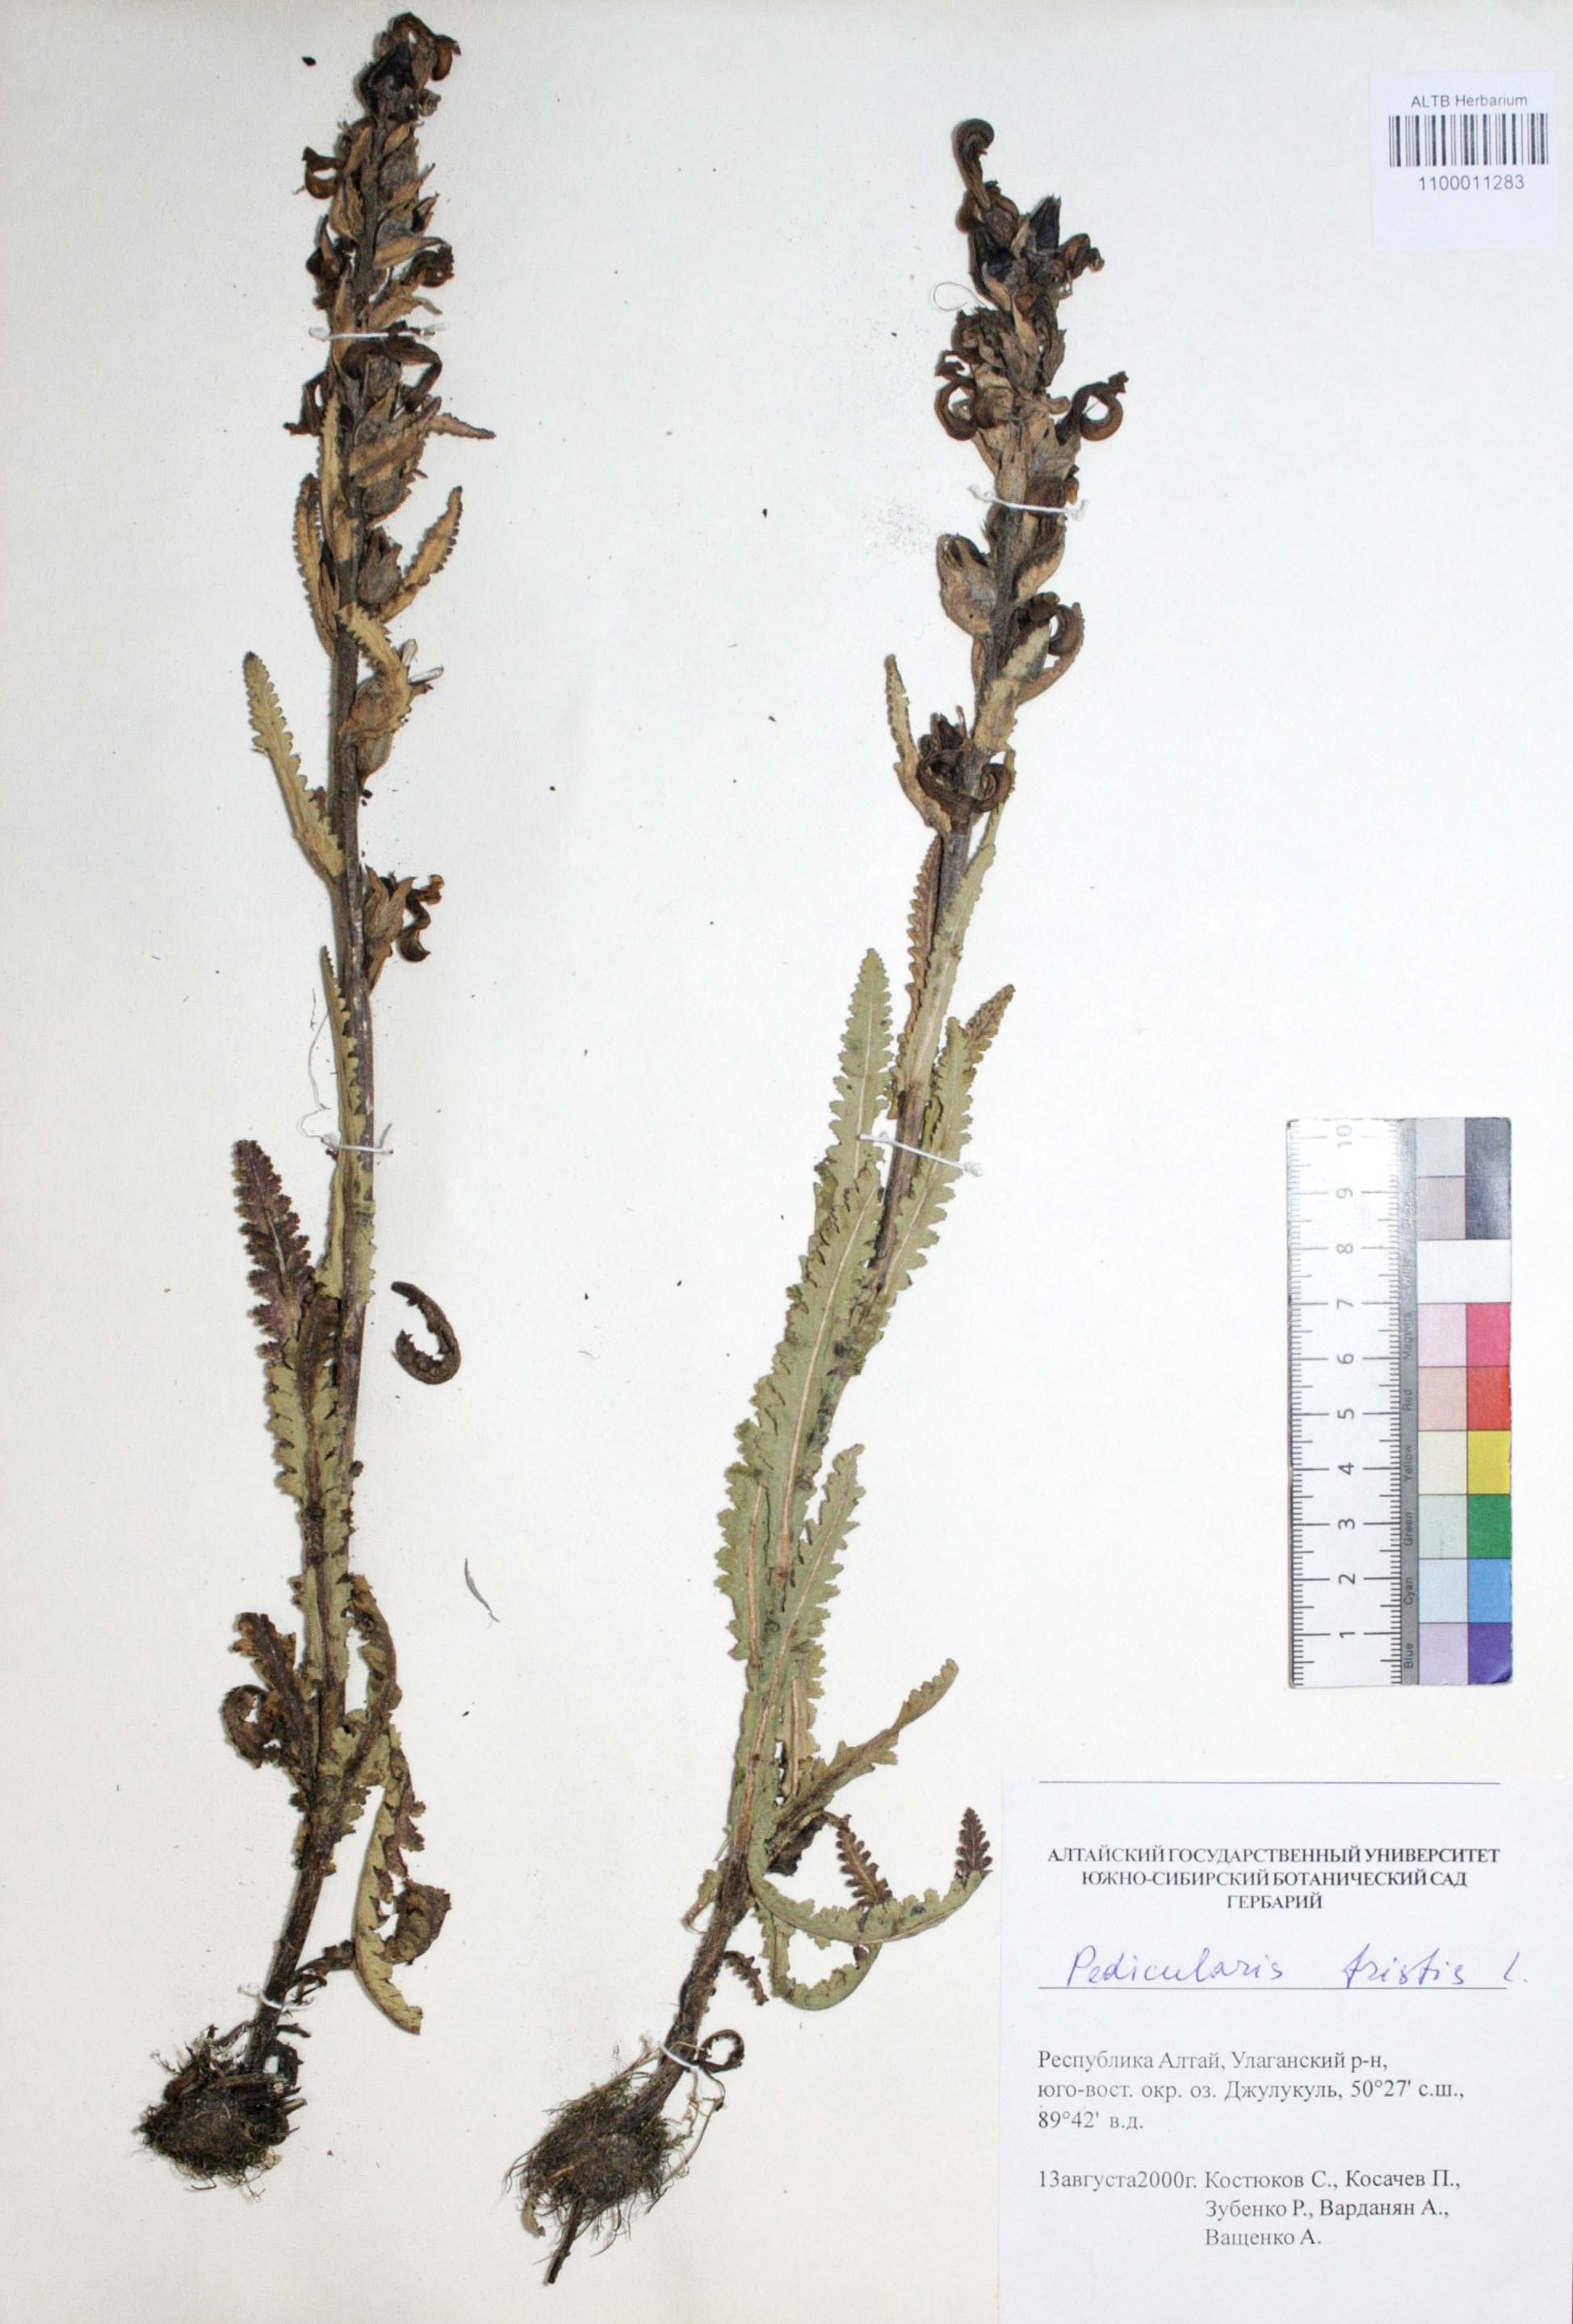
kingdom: Plantae
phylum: Tracheophyta
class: Magnoliopsida
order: Lamiales
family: Orobanchaceae
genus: Pedicularis
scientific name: Pedicularis tristis
